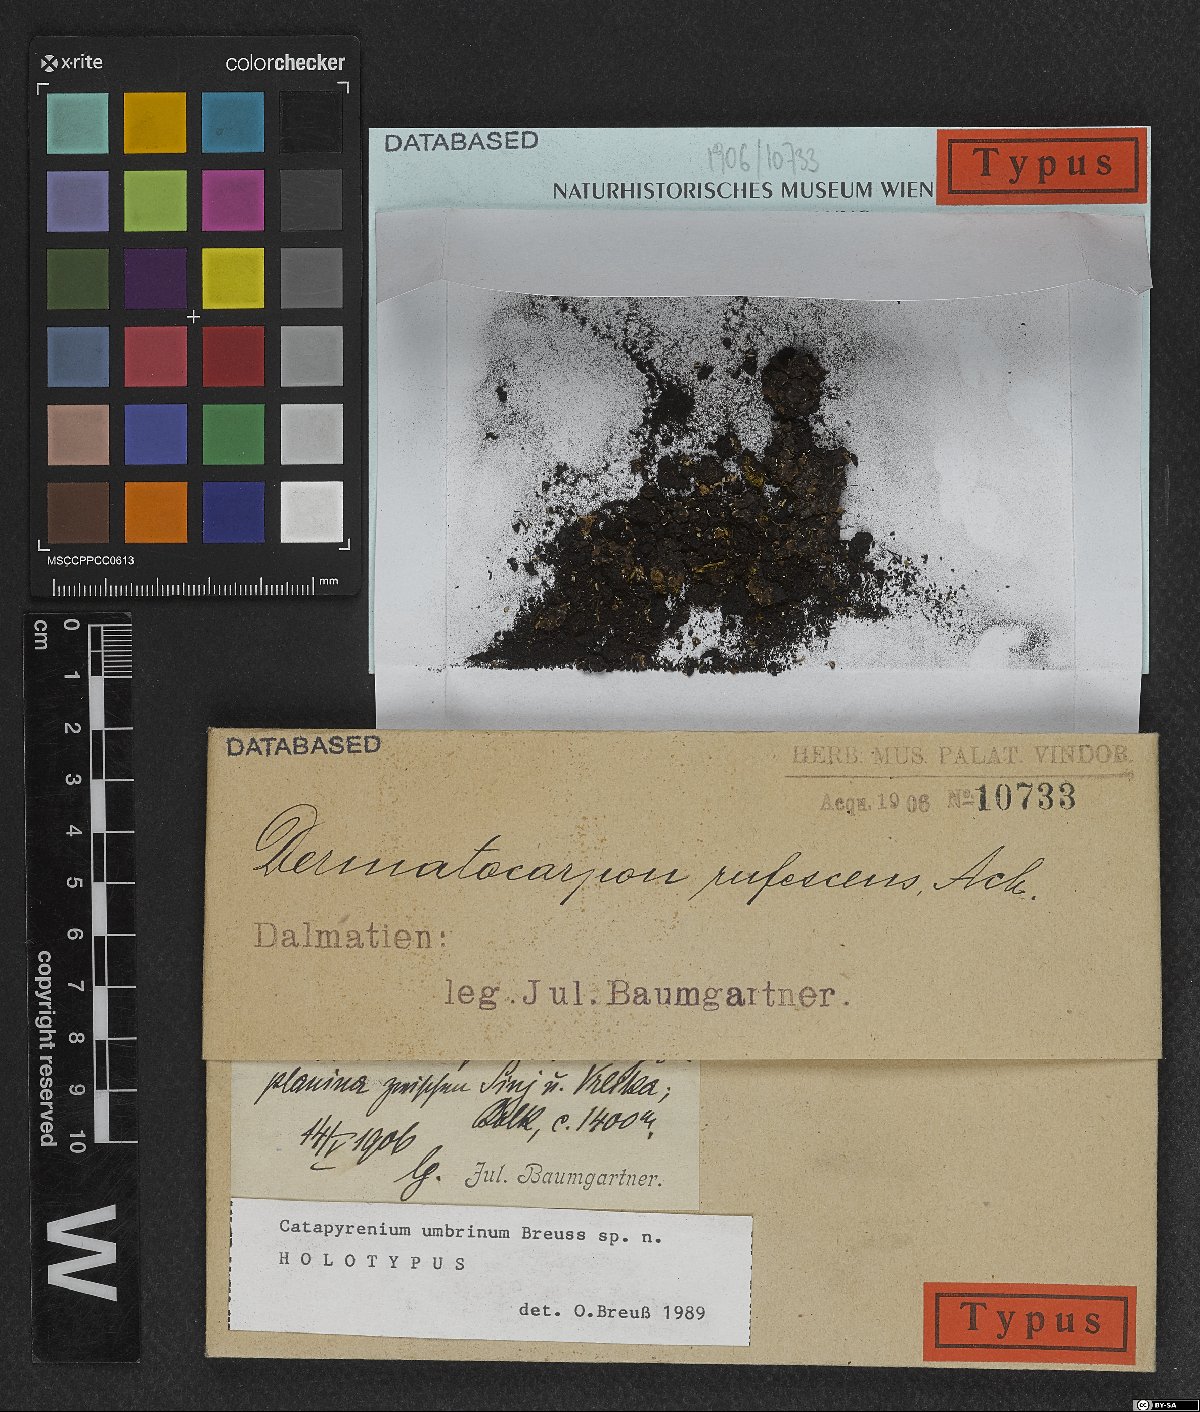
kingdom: Fungi
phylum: Ascomycota
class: Eurotiomycetes
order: Verrucariales
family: Verrucariaceae
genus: Placidium
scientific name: Placidium umbrinum
